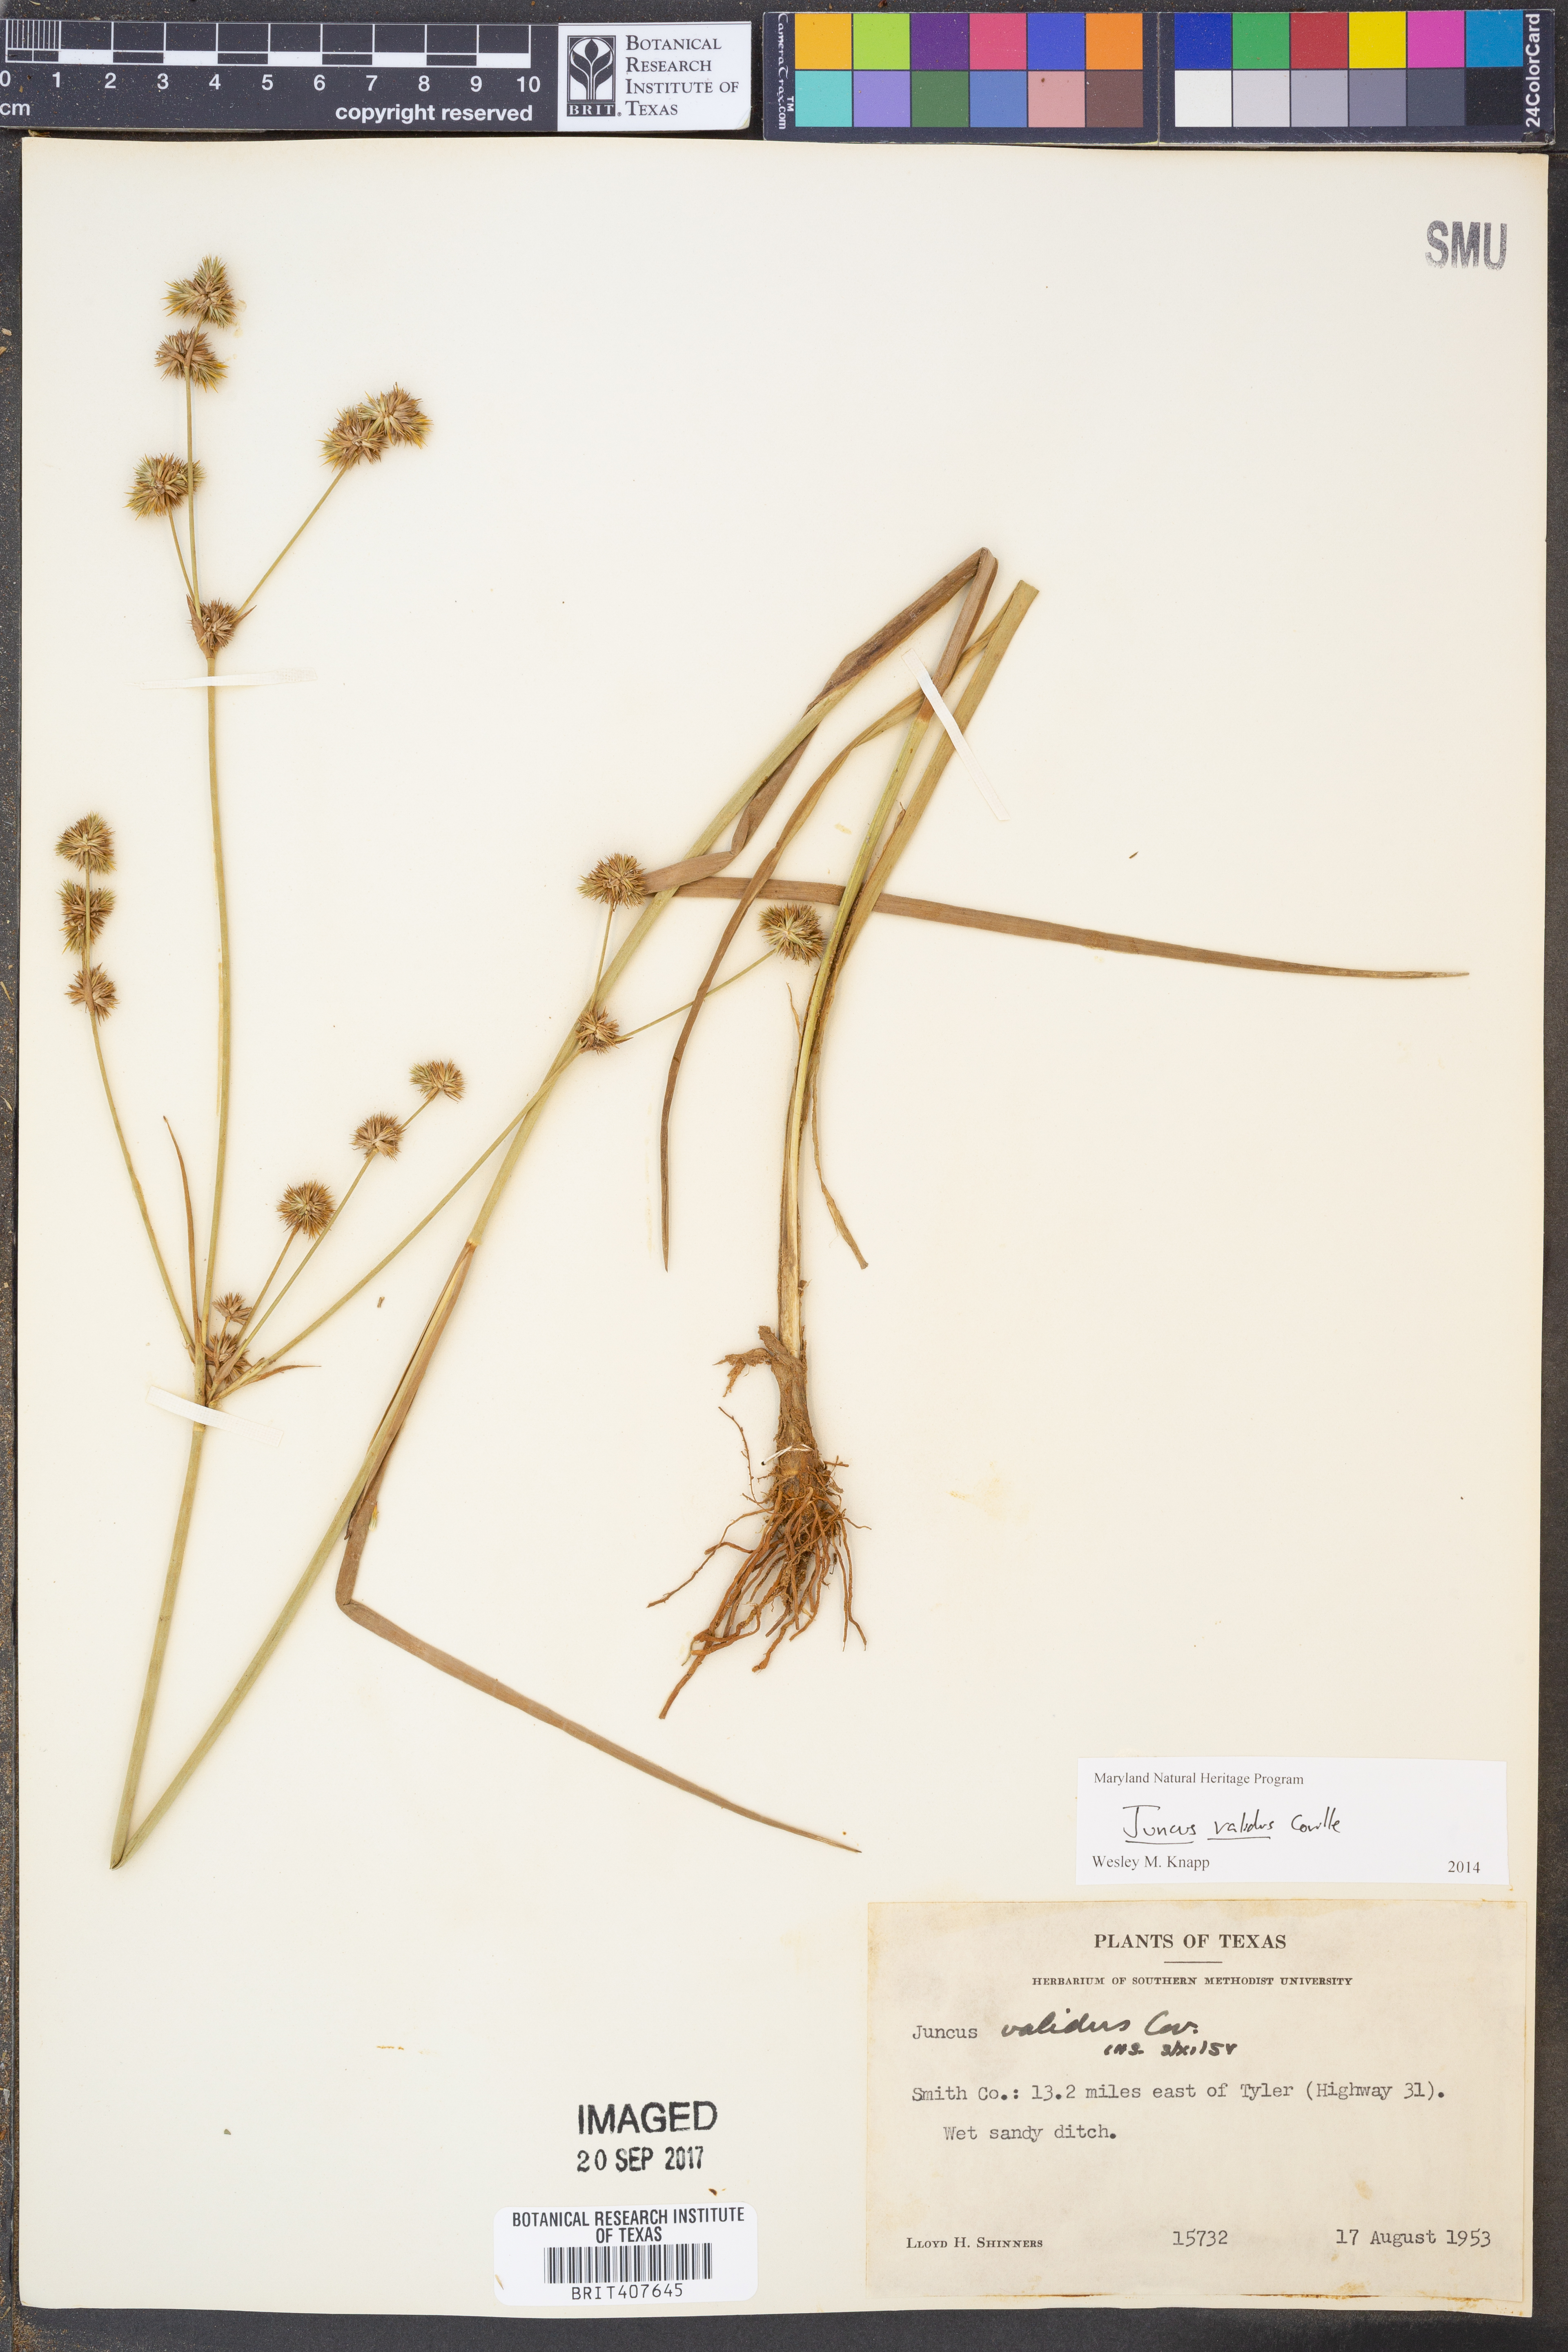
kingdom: Plantae
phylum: Tracheophyta
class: Liliopsida
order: Poales
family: Juncaceae
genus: Juncus
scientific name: Juncus validus
